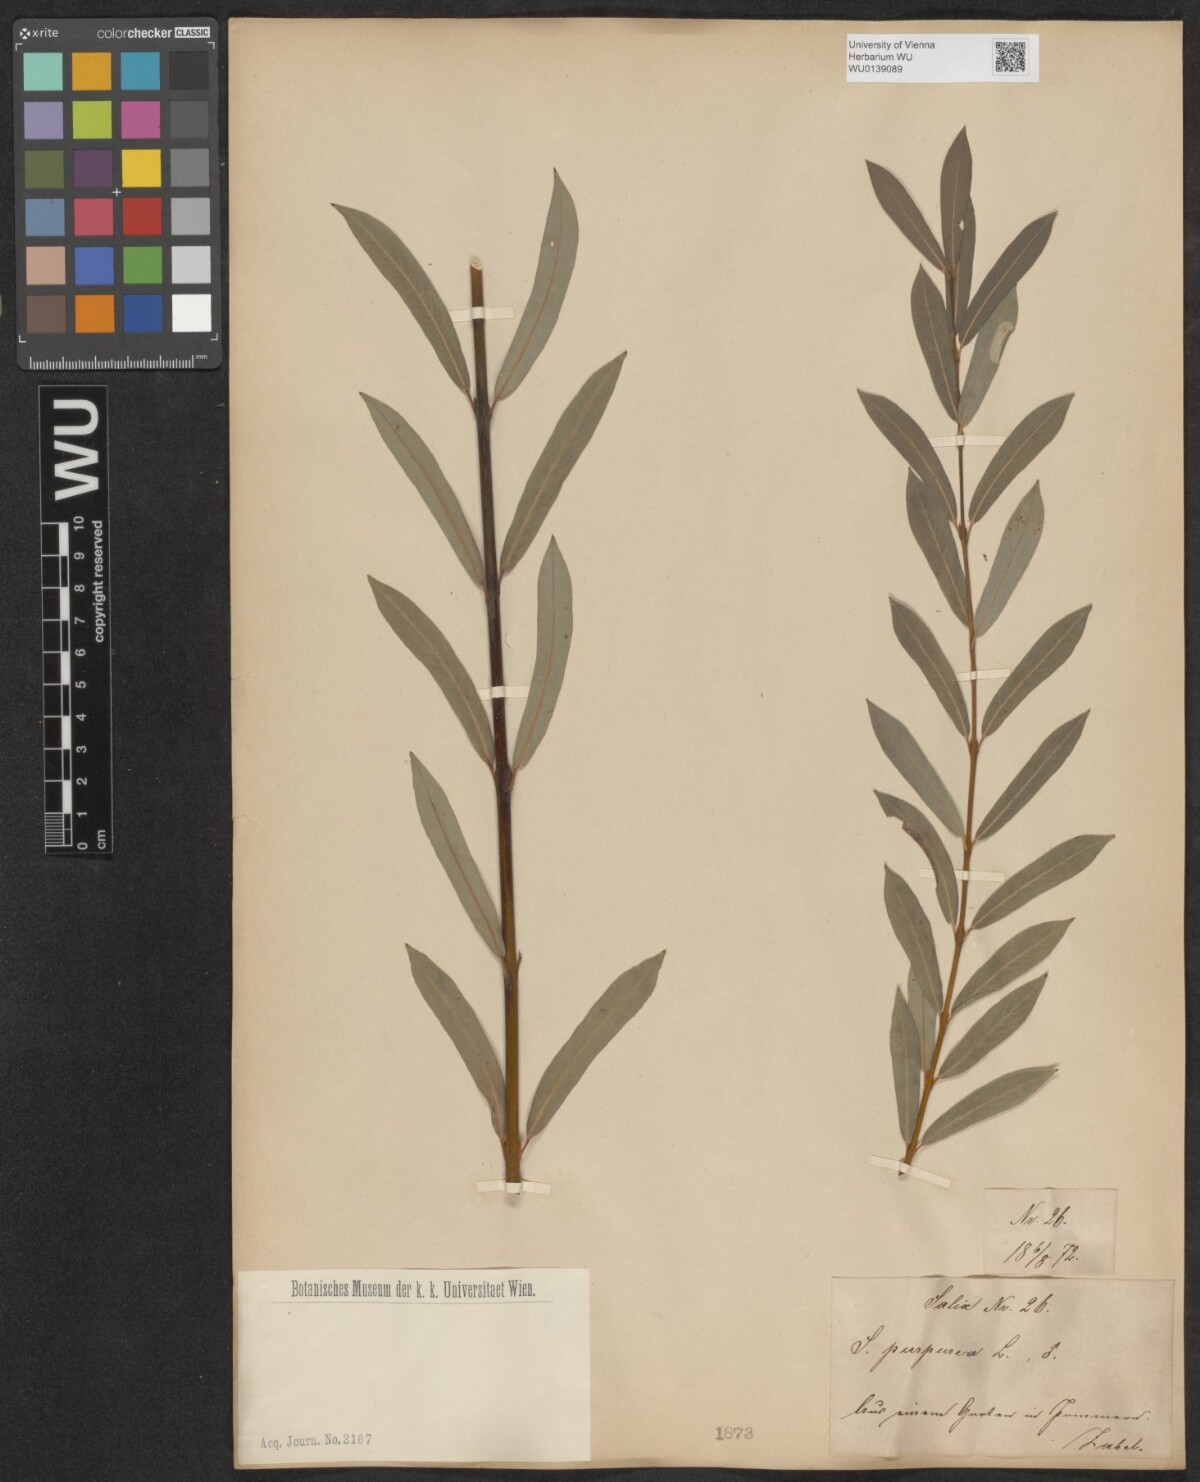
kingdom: Plantae
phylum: Tracheophyta
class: Magnoliopsida
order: Malpighiales
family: Salicaceae
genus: Salix
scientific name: Salix purpurea
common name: Purple willow
